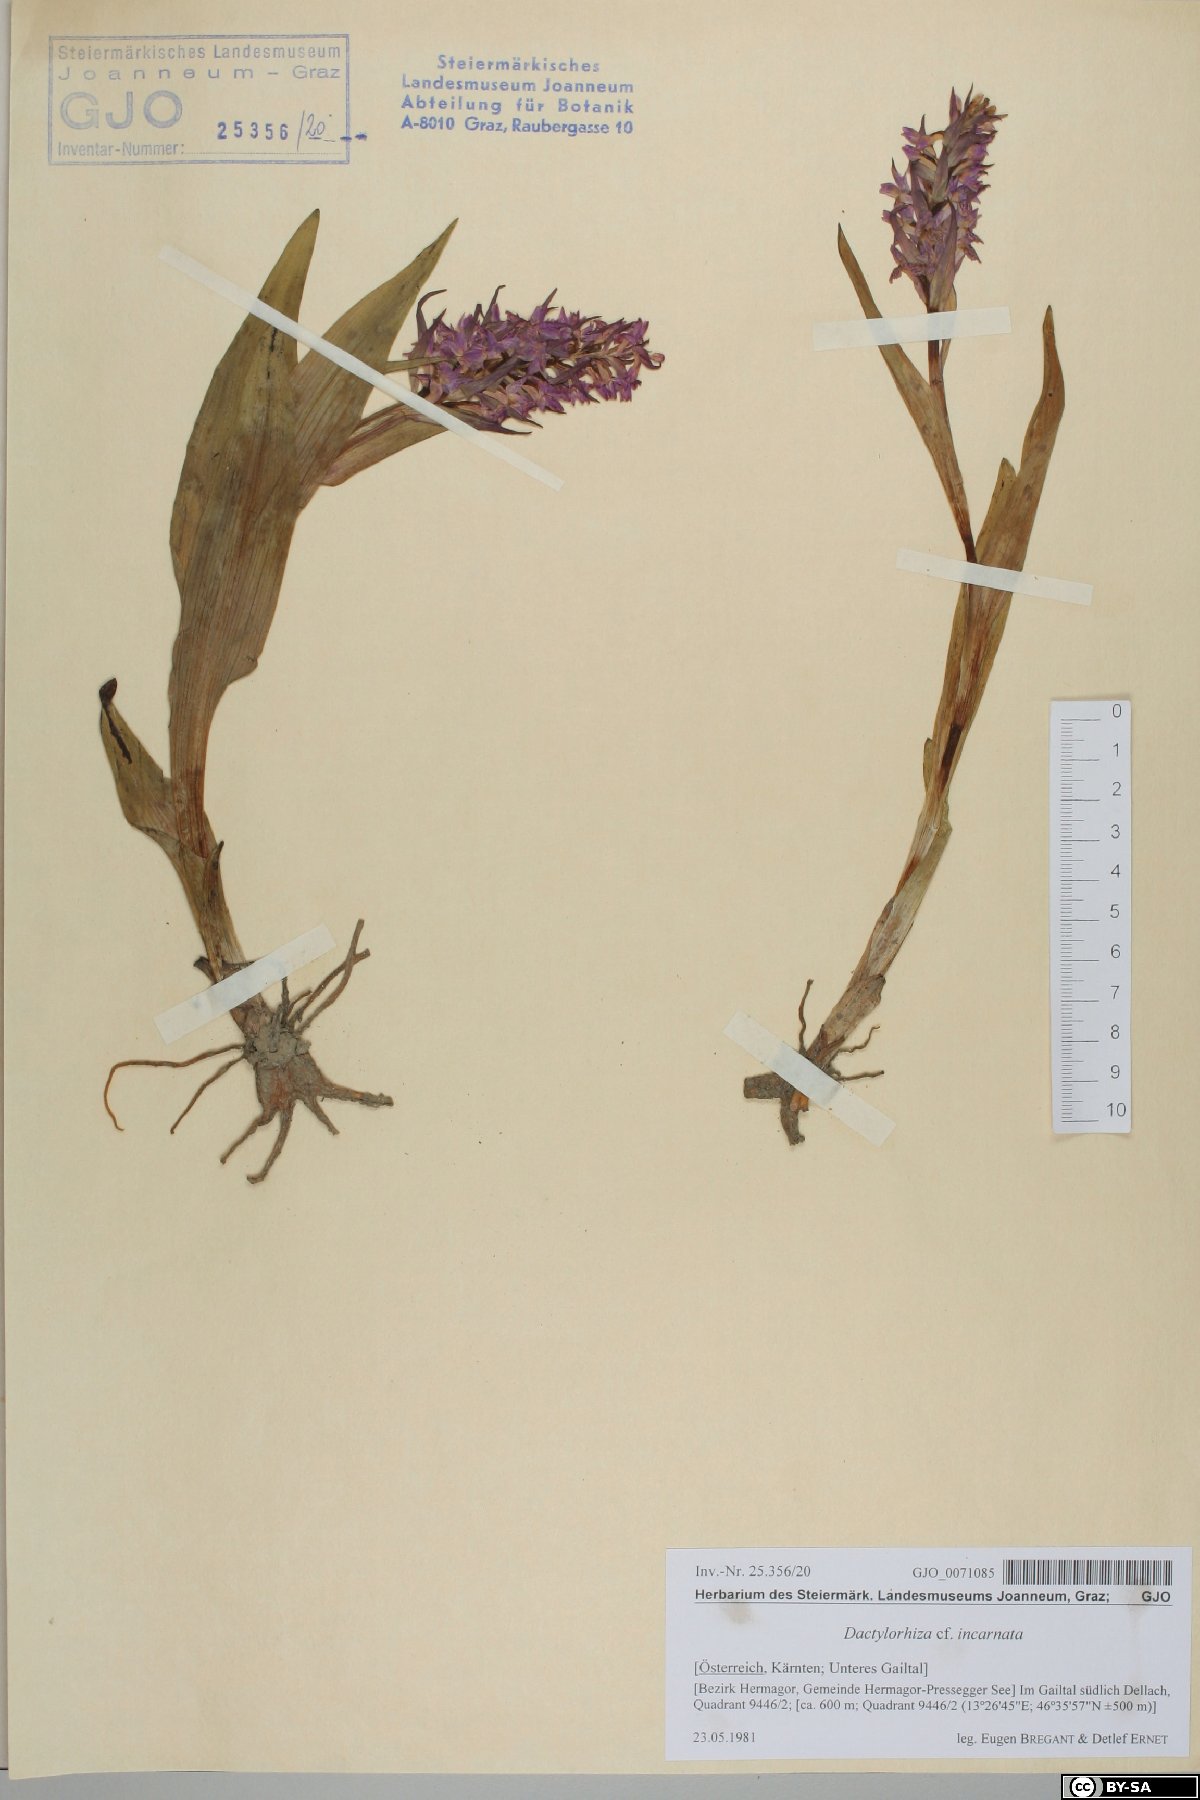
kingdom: Plantae
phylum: Tracheophyta
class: Liliopsida
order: Asparagales
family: Orchidaceae
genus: Dactylorhiza
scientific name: Dactylorhiza incarnata
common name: Early marsh-orchid
